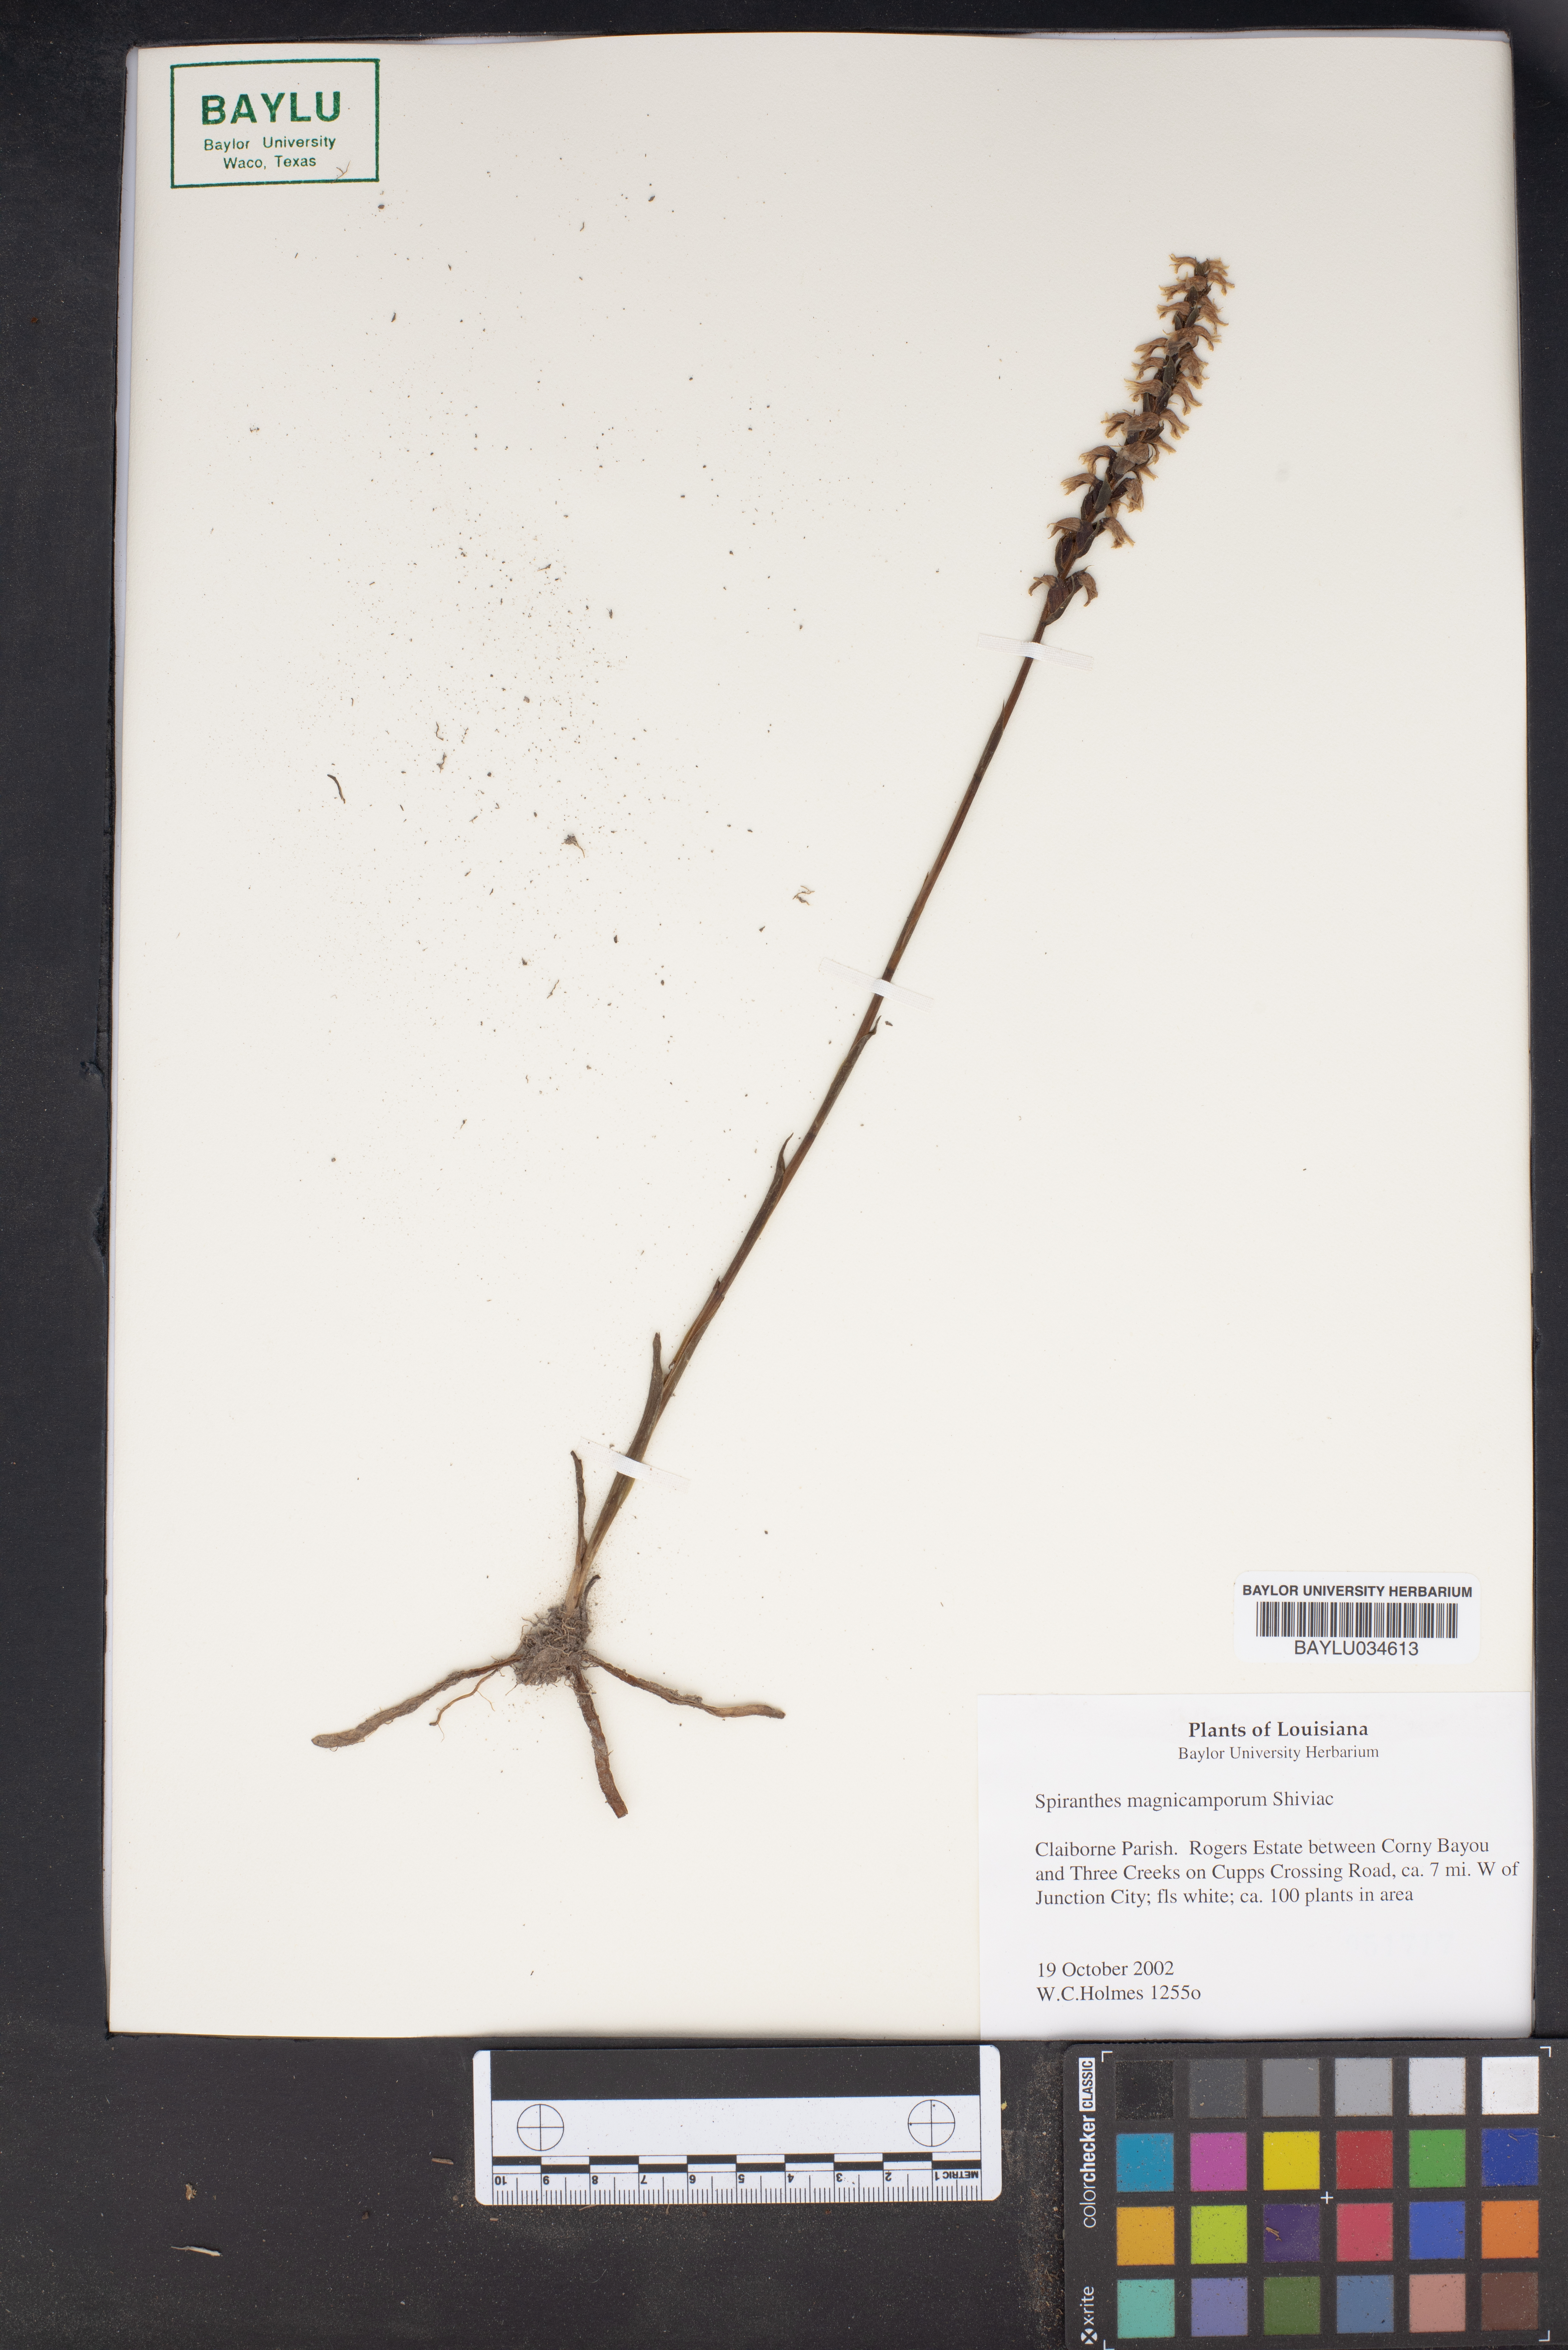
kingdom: Plantae
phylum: Tracheophyta
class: Liliopsida
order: Asparagales
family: Orchidaceae
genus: Spiranthes
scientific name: Spiranthes magnicamporum
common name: Great plains ladies'-tresses
